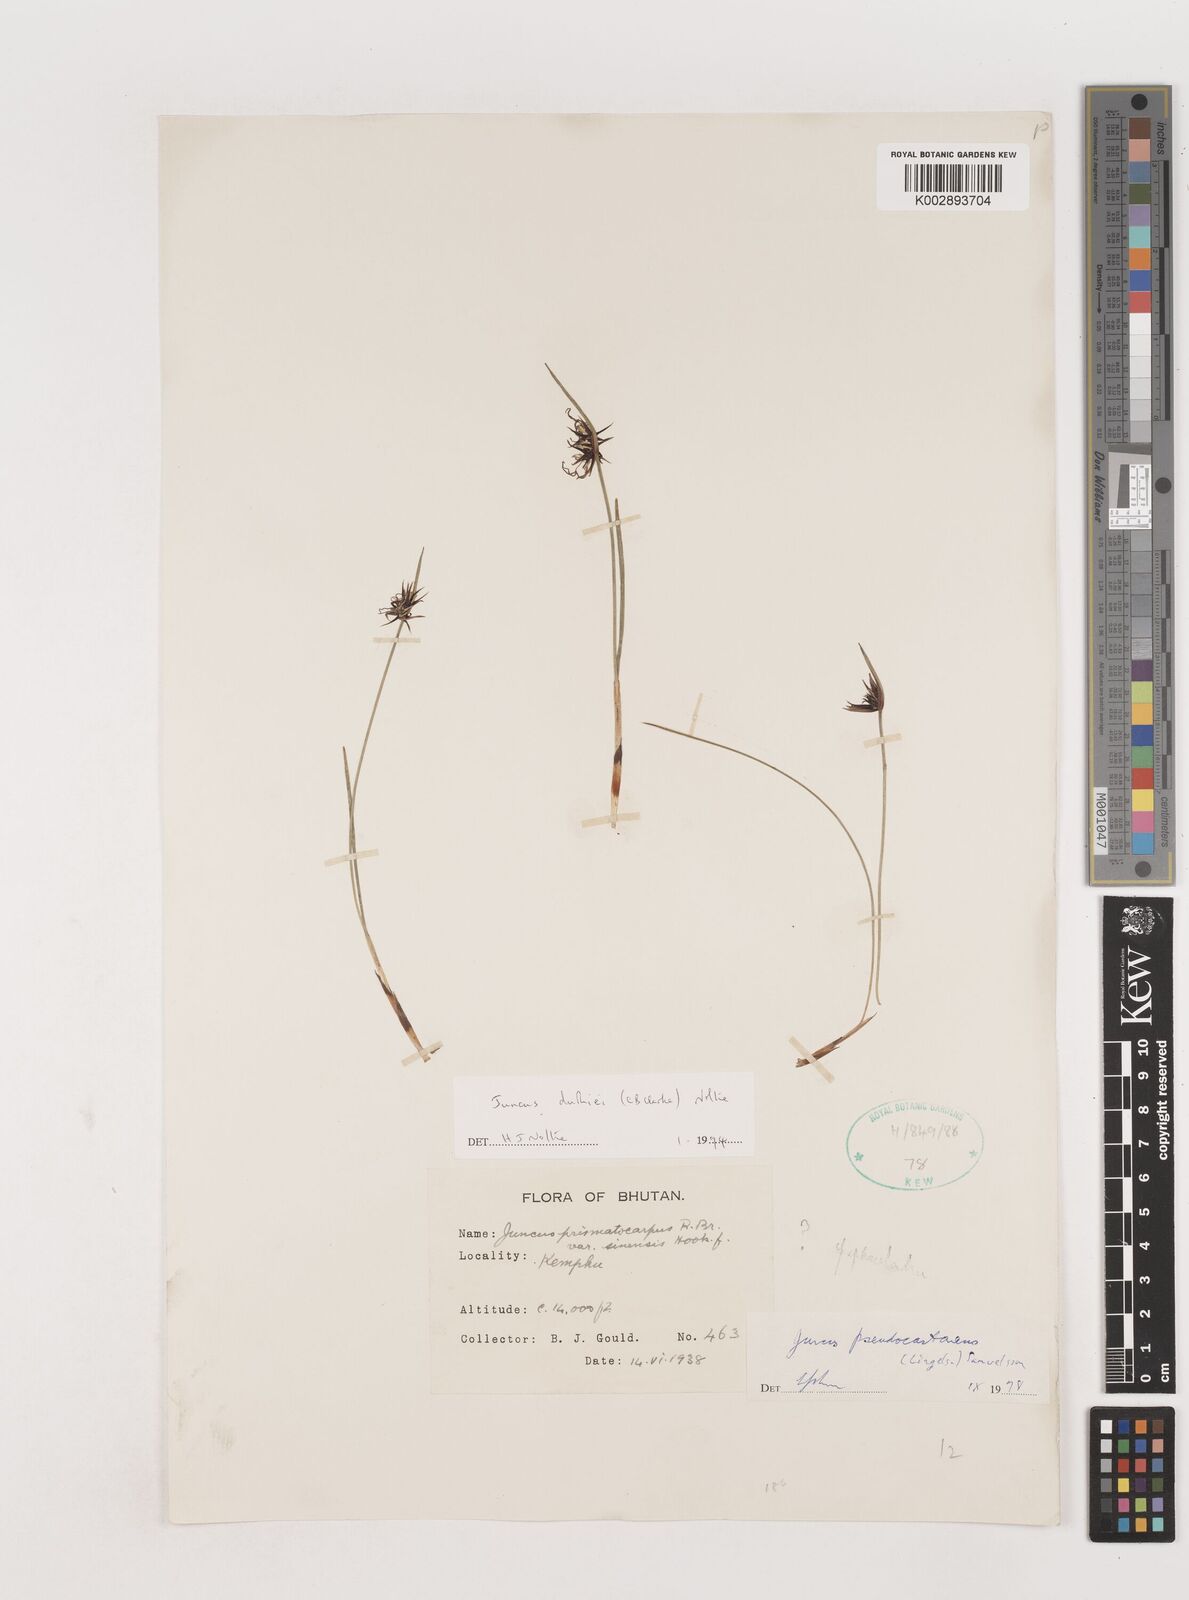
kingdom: Plantae
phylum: Tracheophyta
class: Liliopsida
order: Poales
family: Juncaceae
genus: Juncus
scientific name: Juncus duthiei
